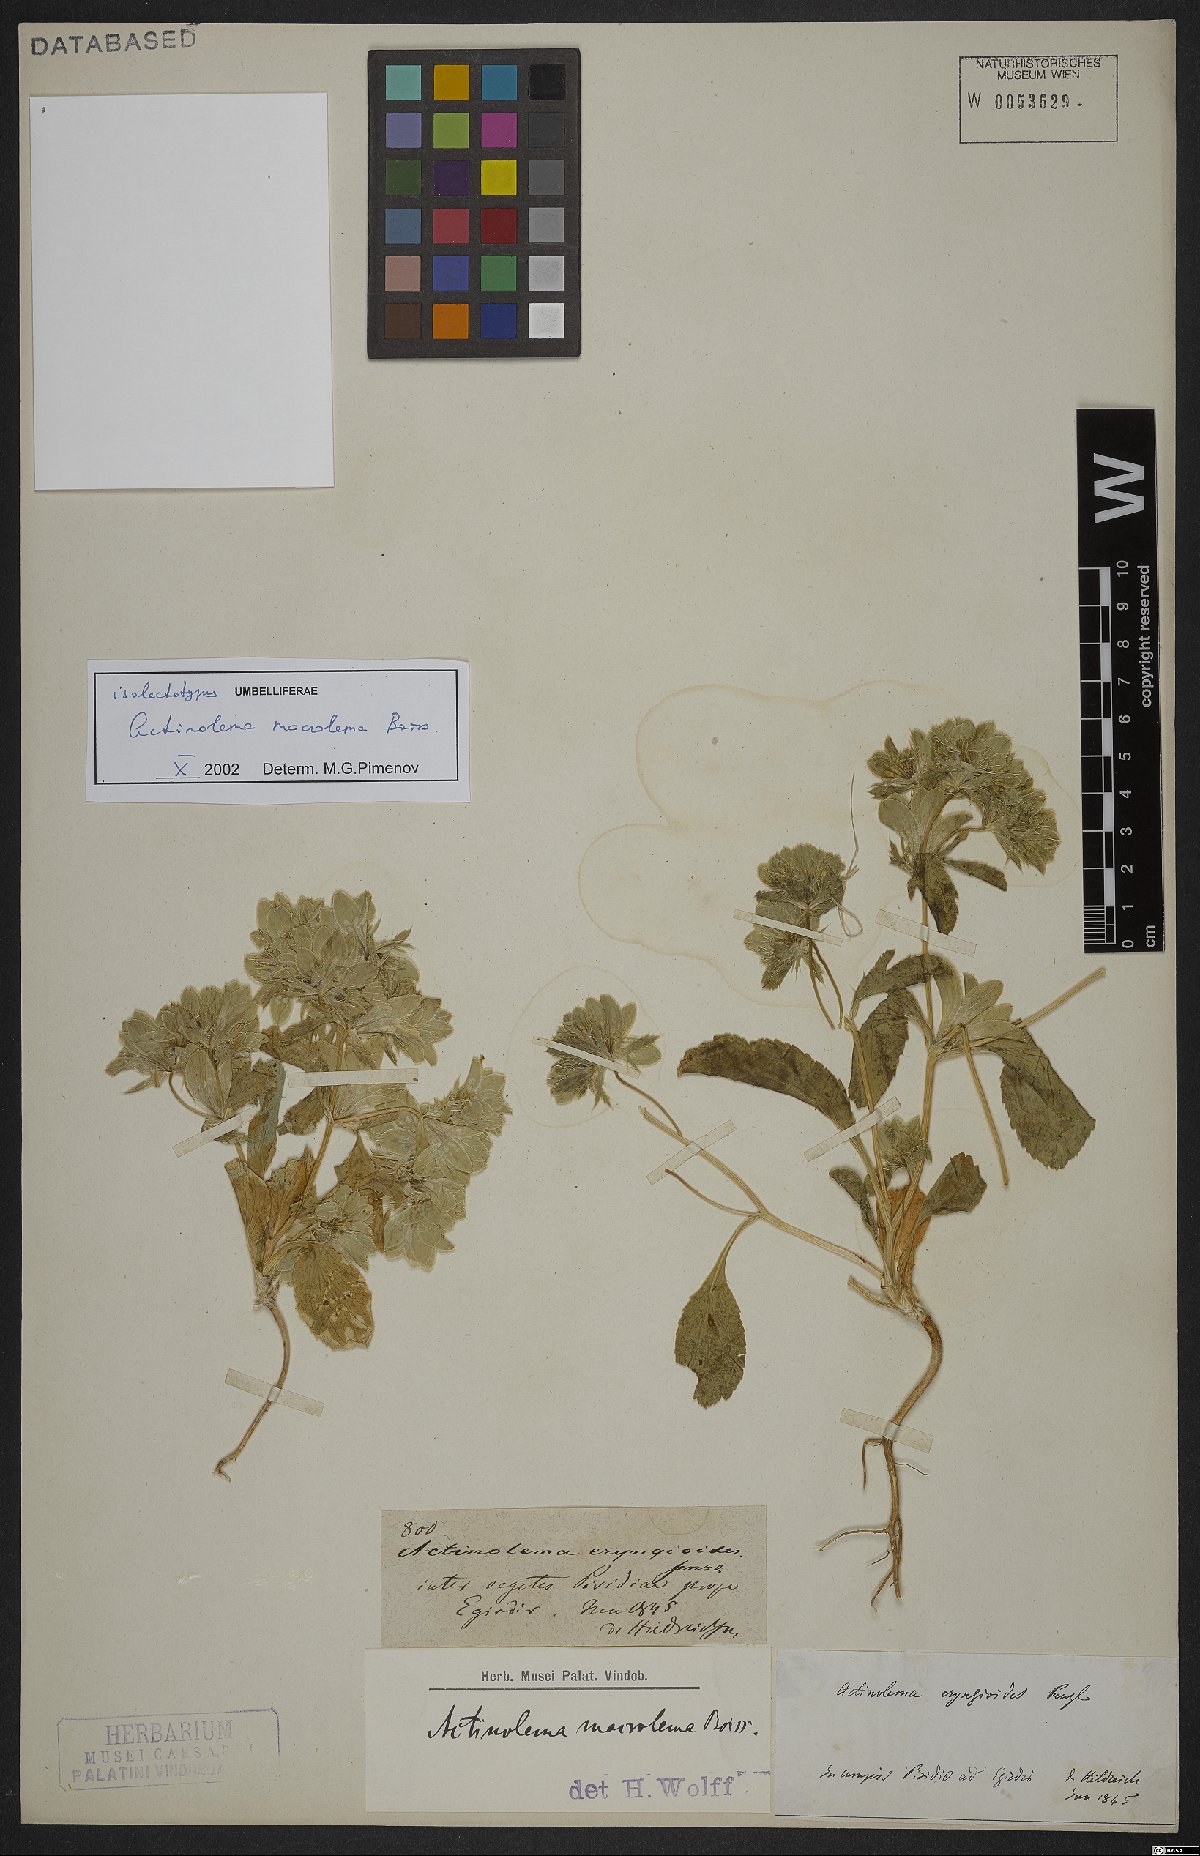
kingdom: Plantae
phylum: Tracheophyta
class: Magnoliopsida
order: Apiales
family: Apiaceae
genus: Actinolema
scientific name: Actinolema macrolema
